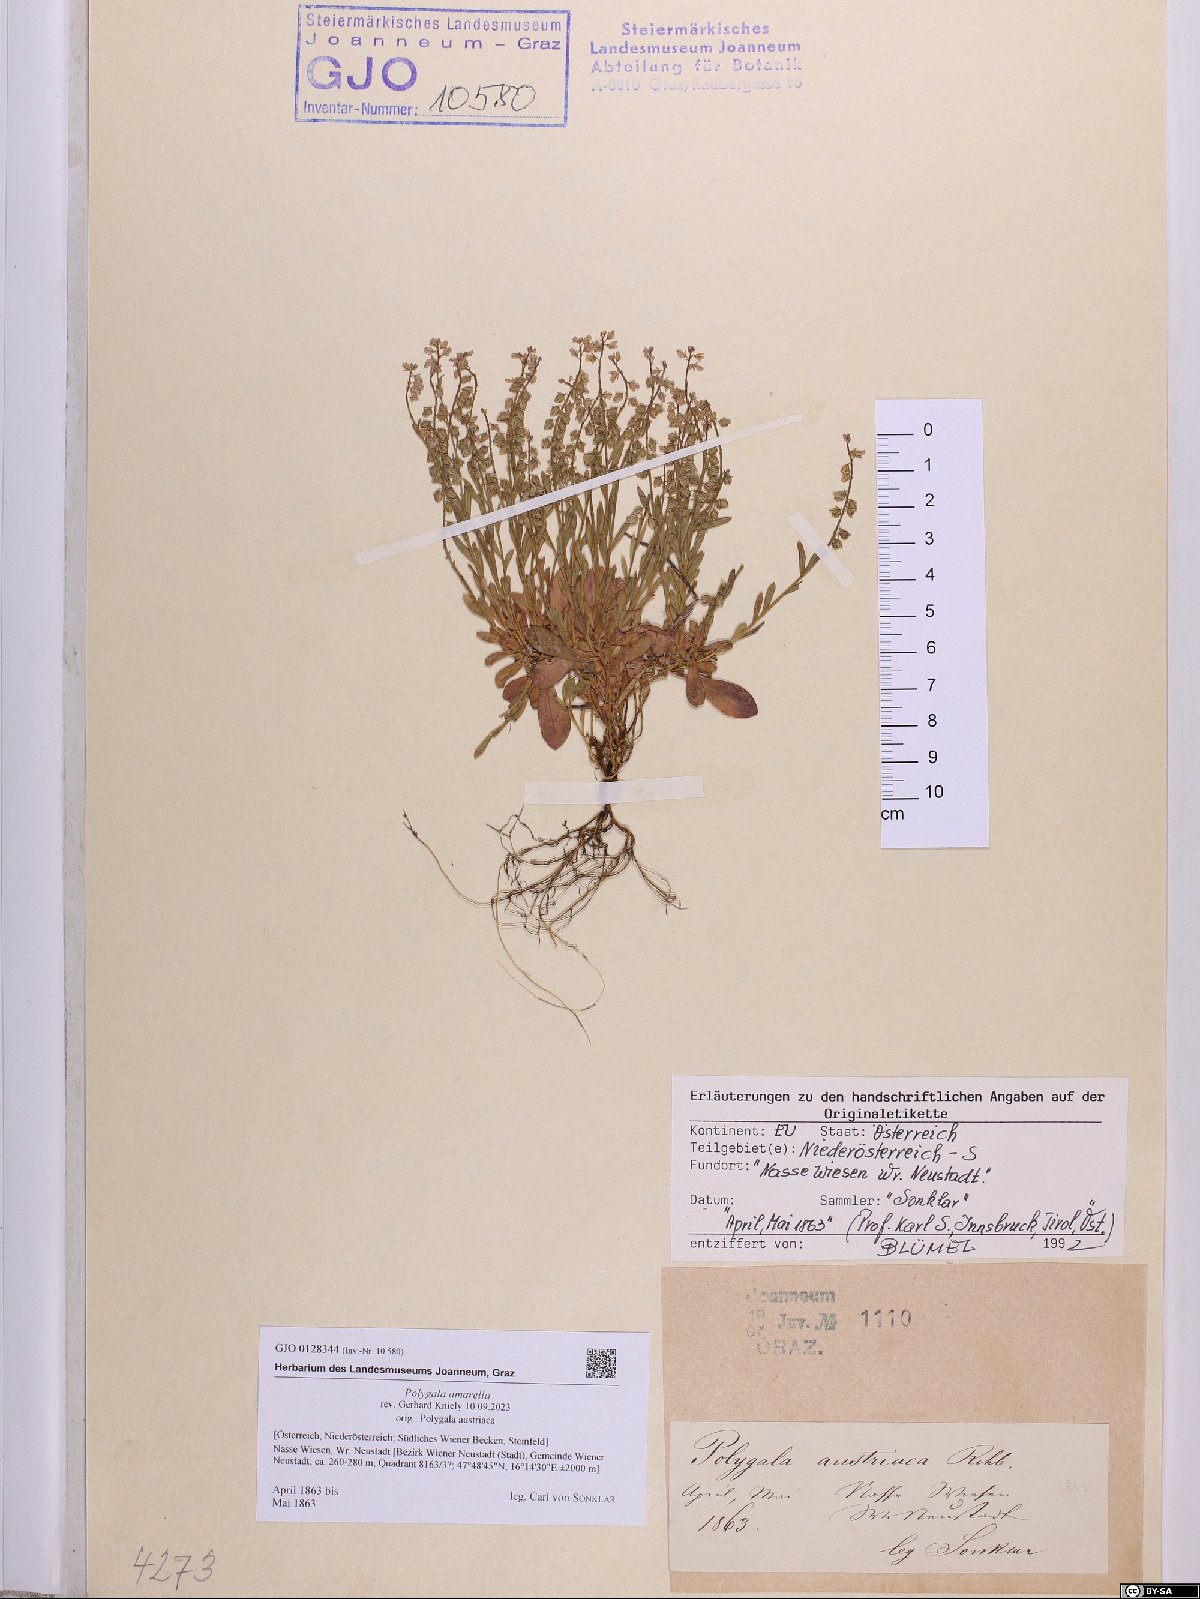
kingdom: Plantae
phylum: Tracheophyta
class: Magnoliopsida
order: Fabales
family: Polygalaceae
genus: Polygala
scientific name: Polygala amarella
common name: Dwarf milkwort
